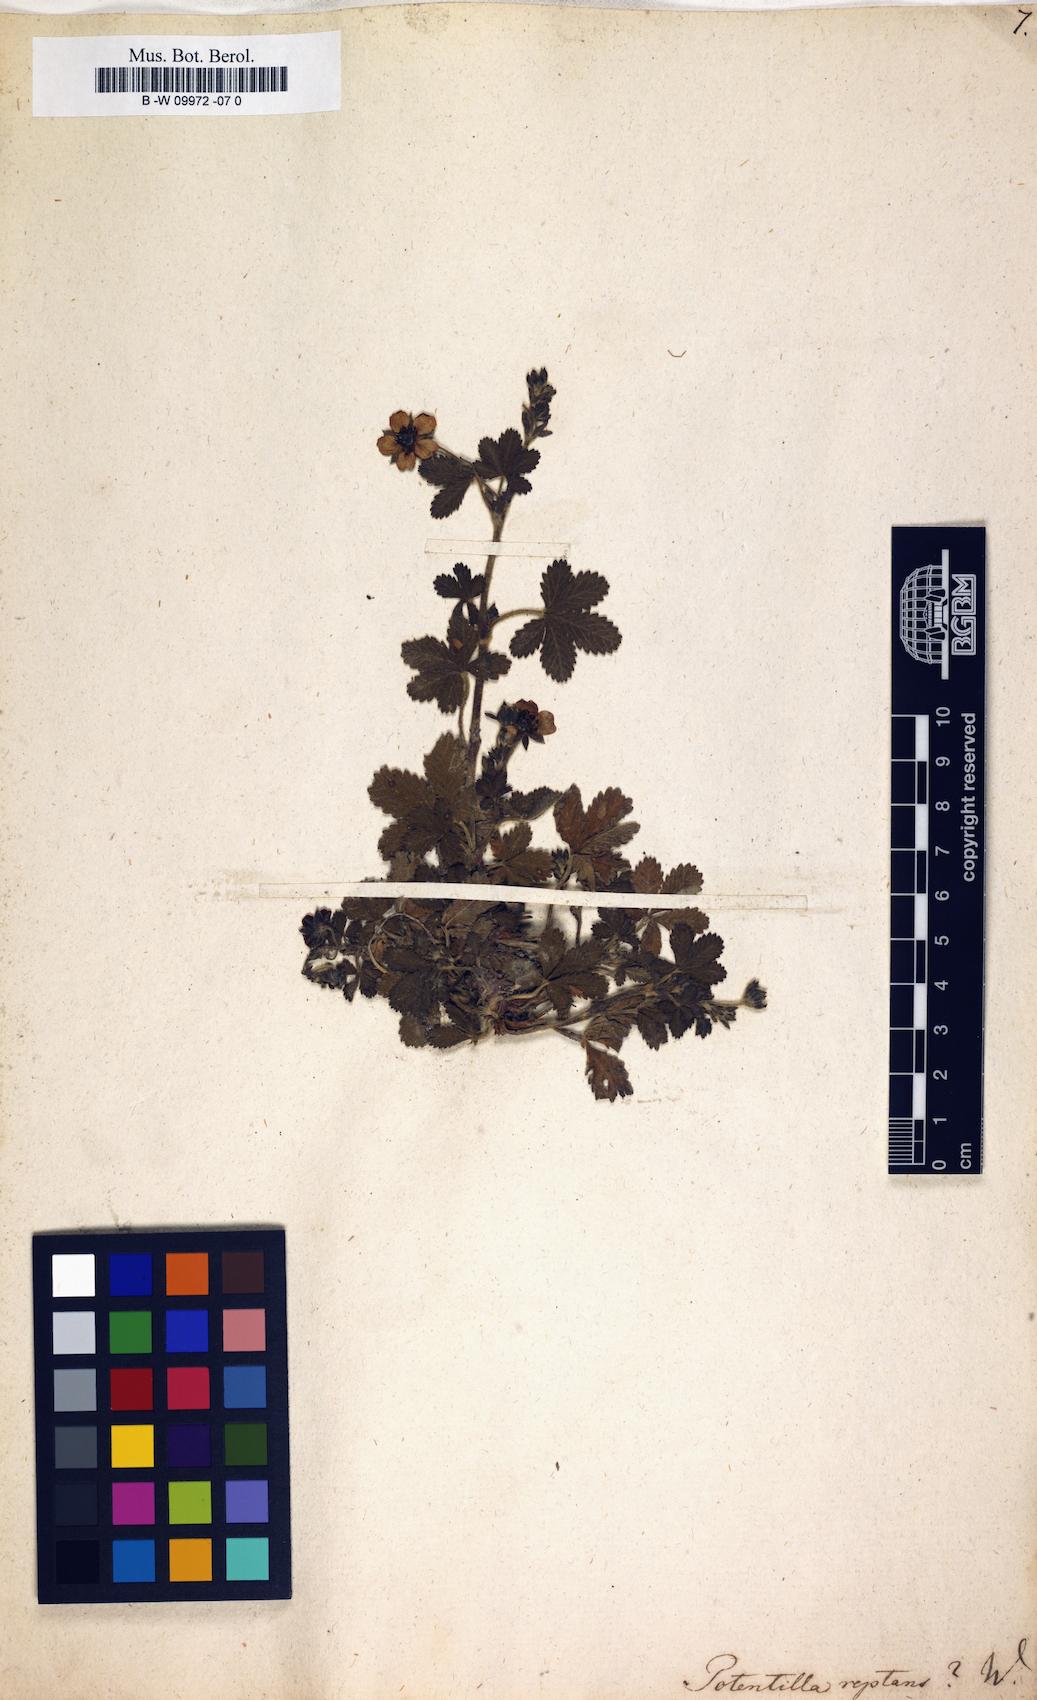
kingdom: Plantae
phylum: Tracheophyta
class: Magnoliopsida
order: Rosales
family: Rosaceae
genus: Potentilla
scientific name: Potentilla reptans
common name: Creeping cinquefoil
